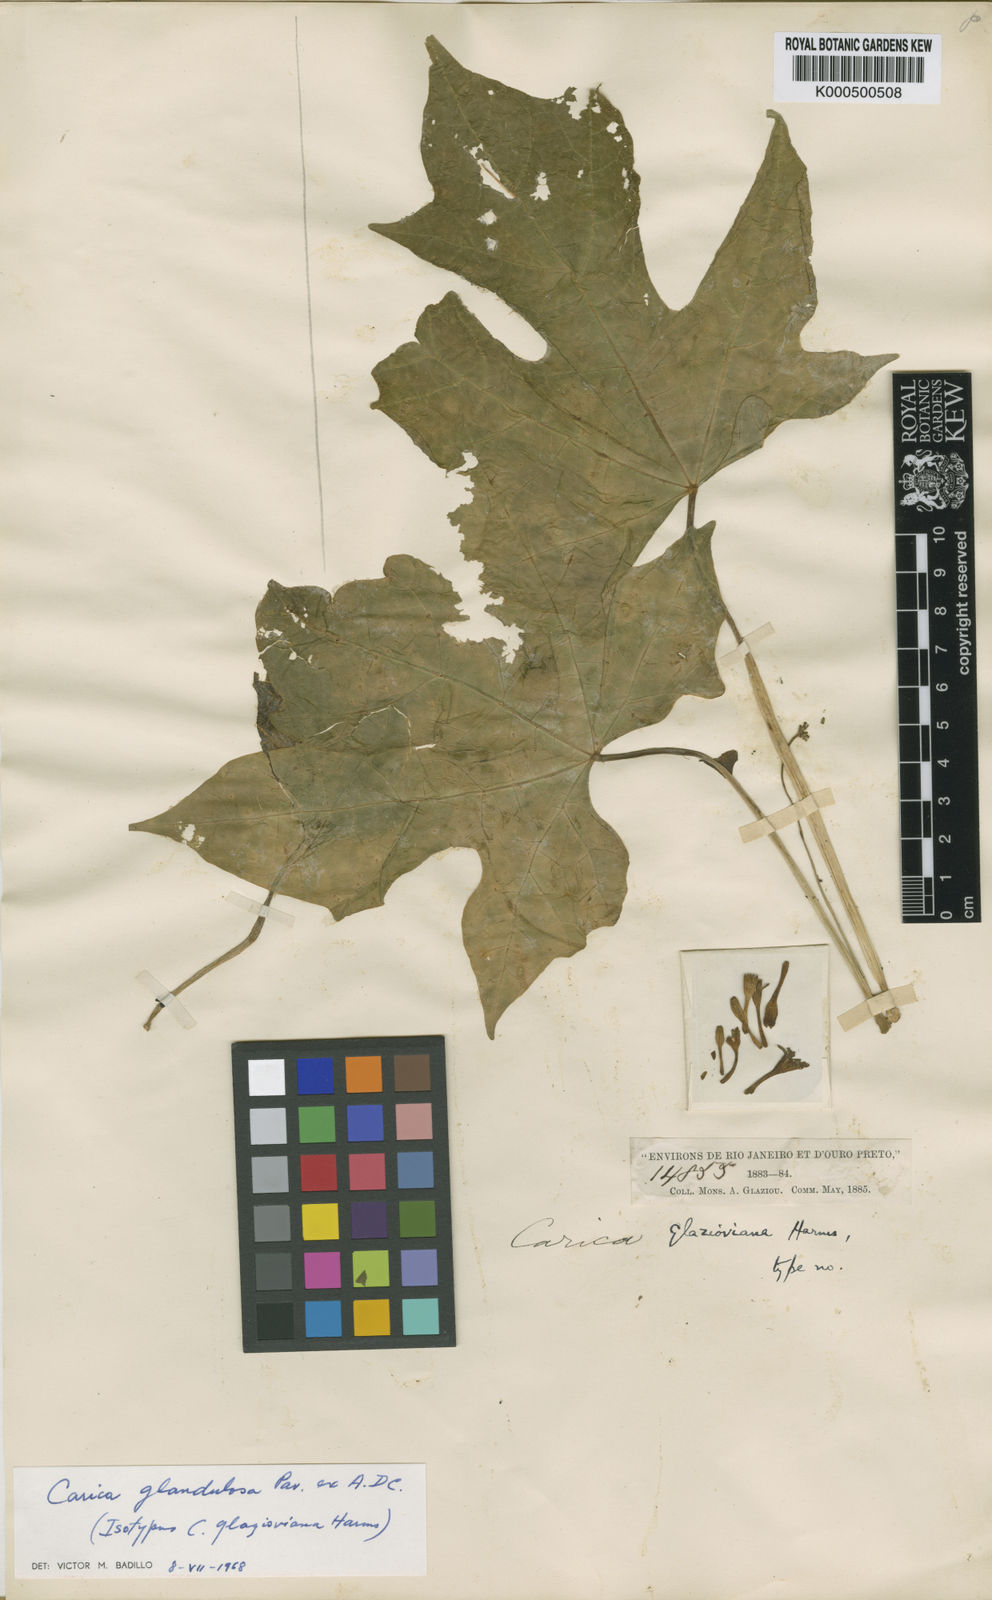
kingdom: Plantae
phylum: Tracheophyta
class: Magnoliopsida
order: Brassicales
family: Caricaceae
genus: Vasconcellea
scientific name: Vasconcellea glandulosa
